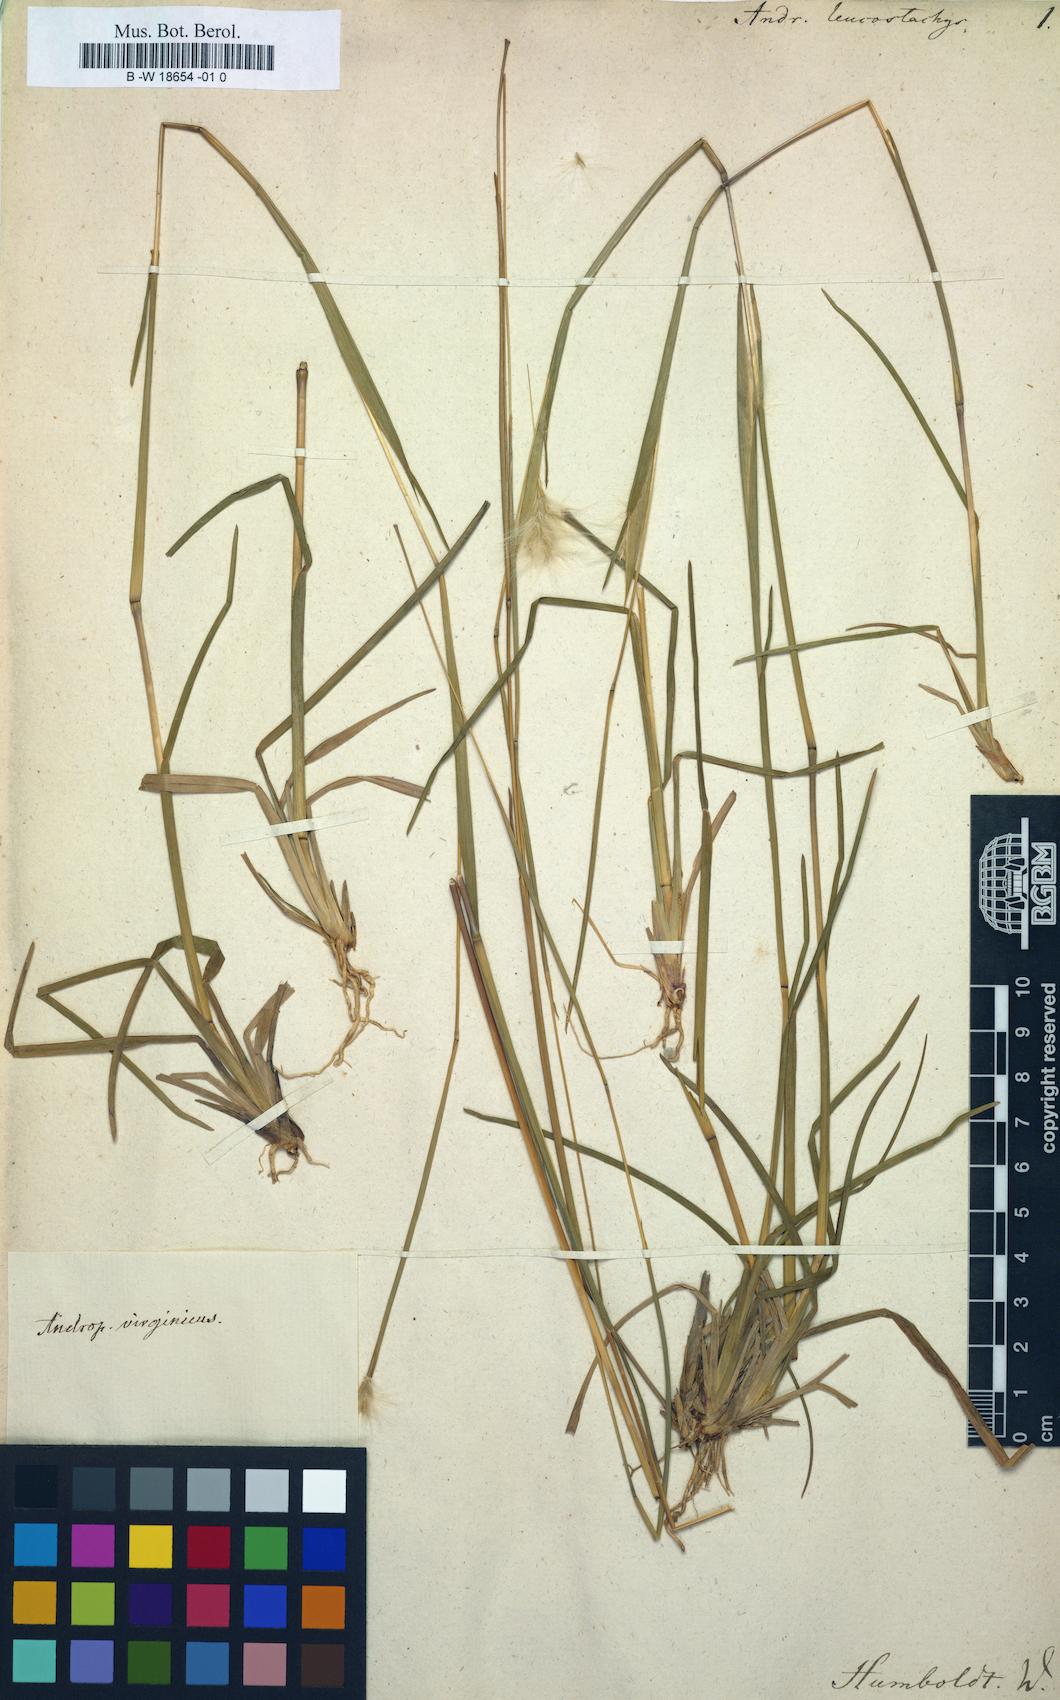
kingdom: Plantae
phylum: Tracheophyta
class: Liliopsida
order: Poales
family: Poaceae
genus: Andropogon
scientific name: Andropogon leucostachyus
